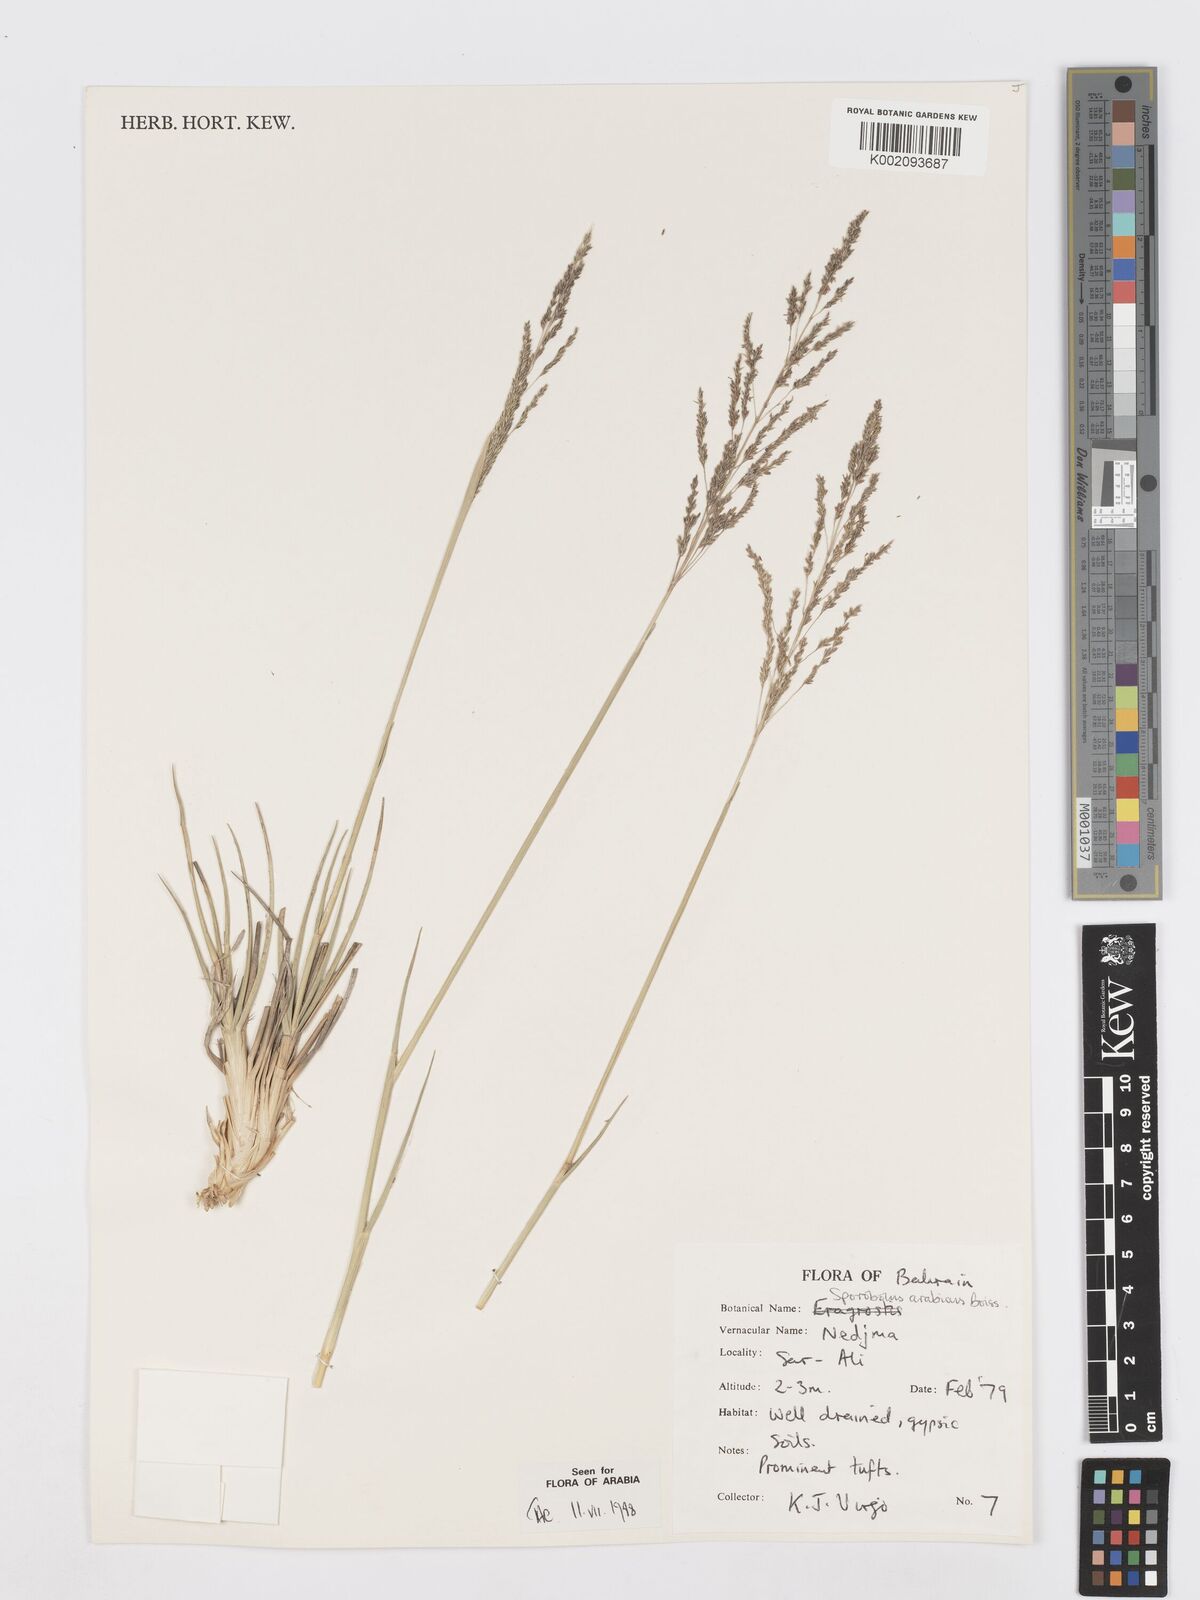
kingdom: Plantae
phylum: Tracheophyta
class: Liliopsida
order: Poales
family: Poaceae
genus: Sporobolus
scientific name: Sporobolus ioclados
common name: Pan dropseed
